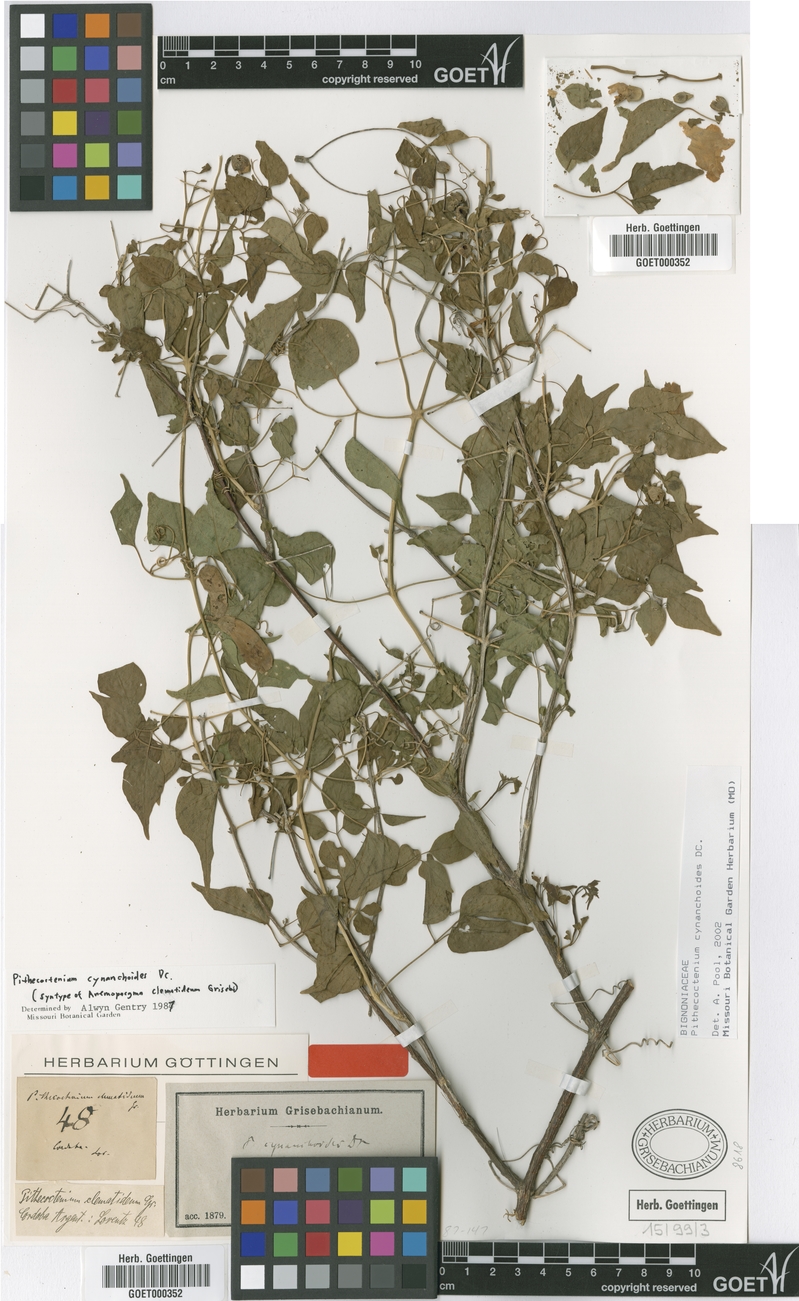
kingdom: Plantae
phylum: Tracheophyta
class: Magnoliopsida
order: Lamiales
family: Bignoniaceae
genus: Amphilophium
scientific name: Amphilophium carolinae
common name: Monkey's-comb
